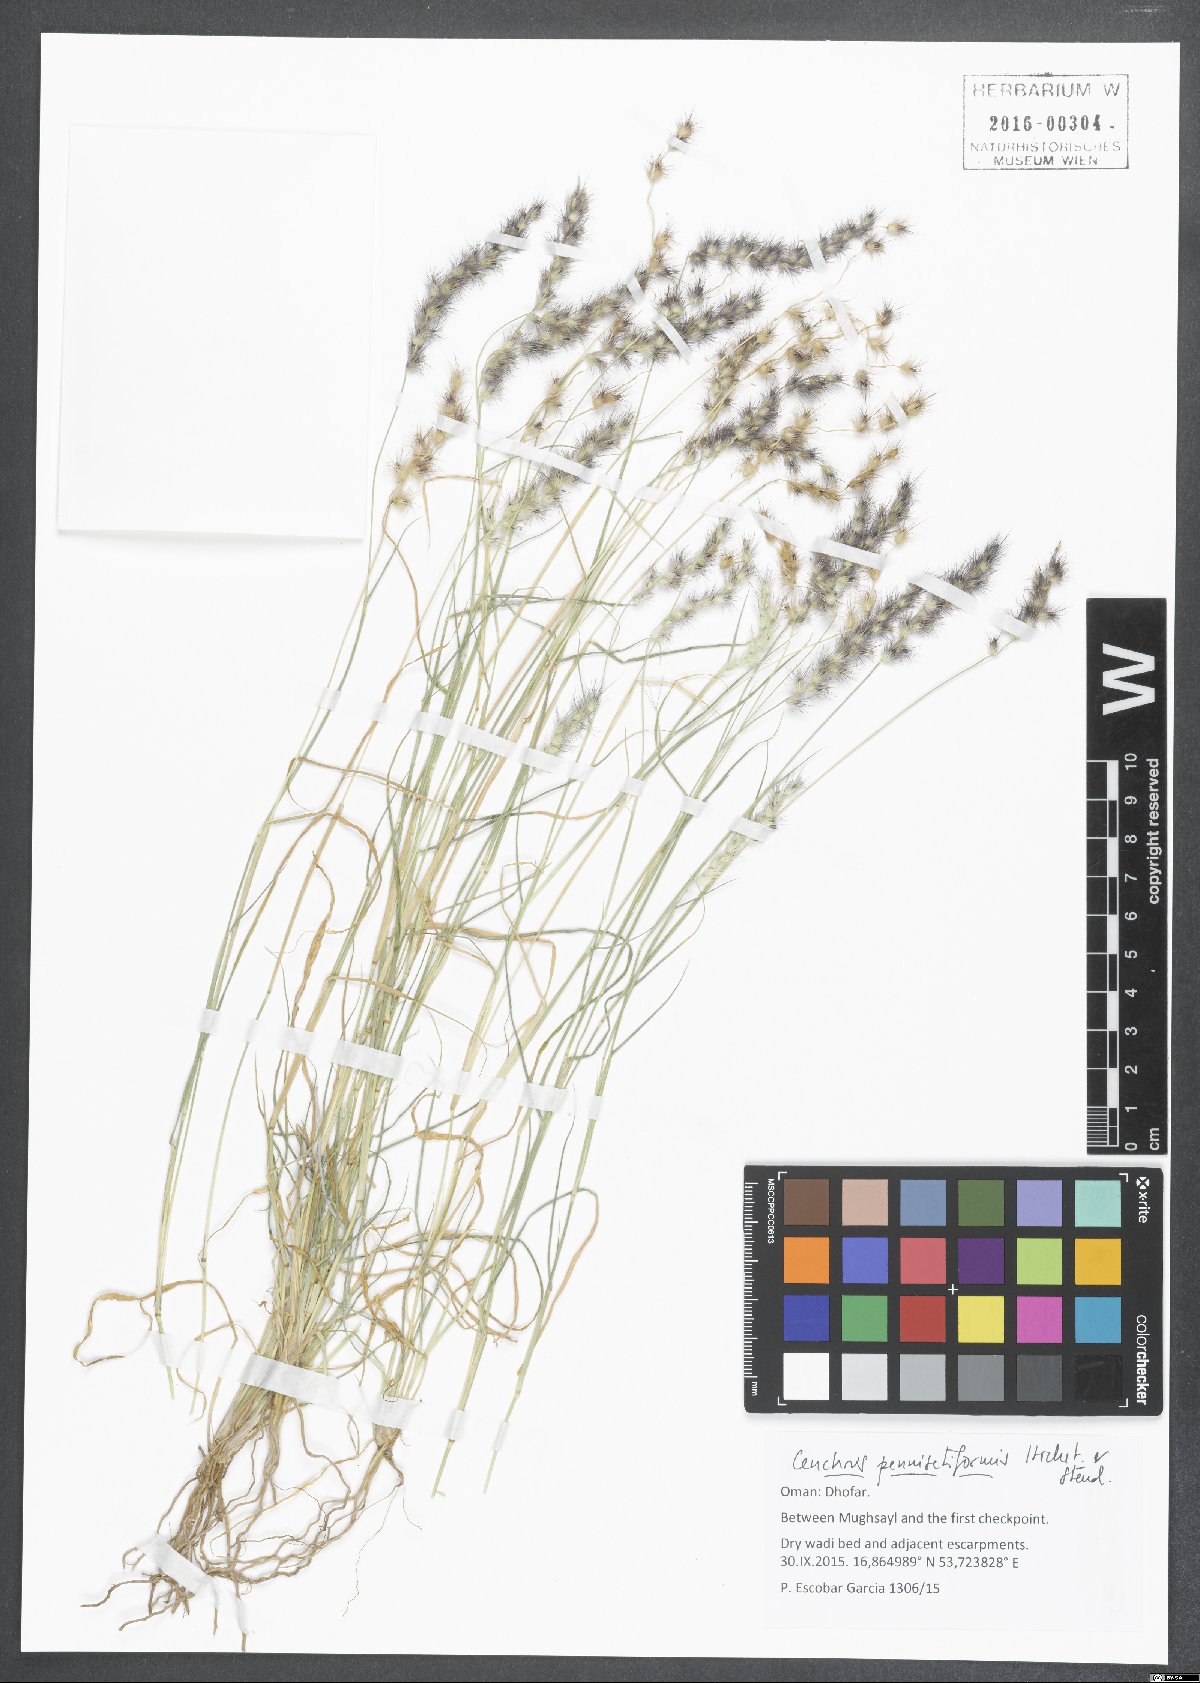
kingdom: Plantae
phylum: Tracheophyta
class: Liliopsida
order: Poales
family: Poaceae
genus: Cenchrus
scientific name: Cenchrus pennisetiformis
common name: Cloncurry
